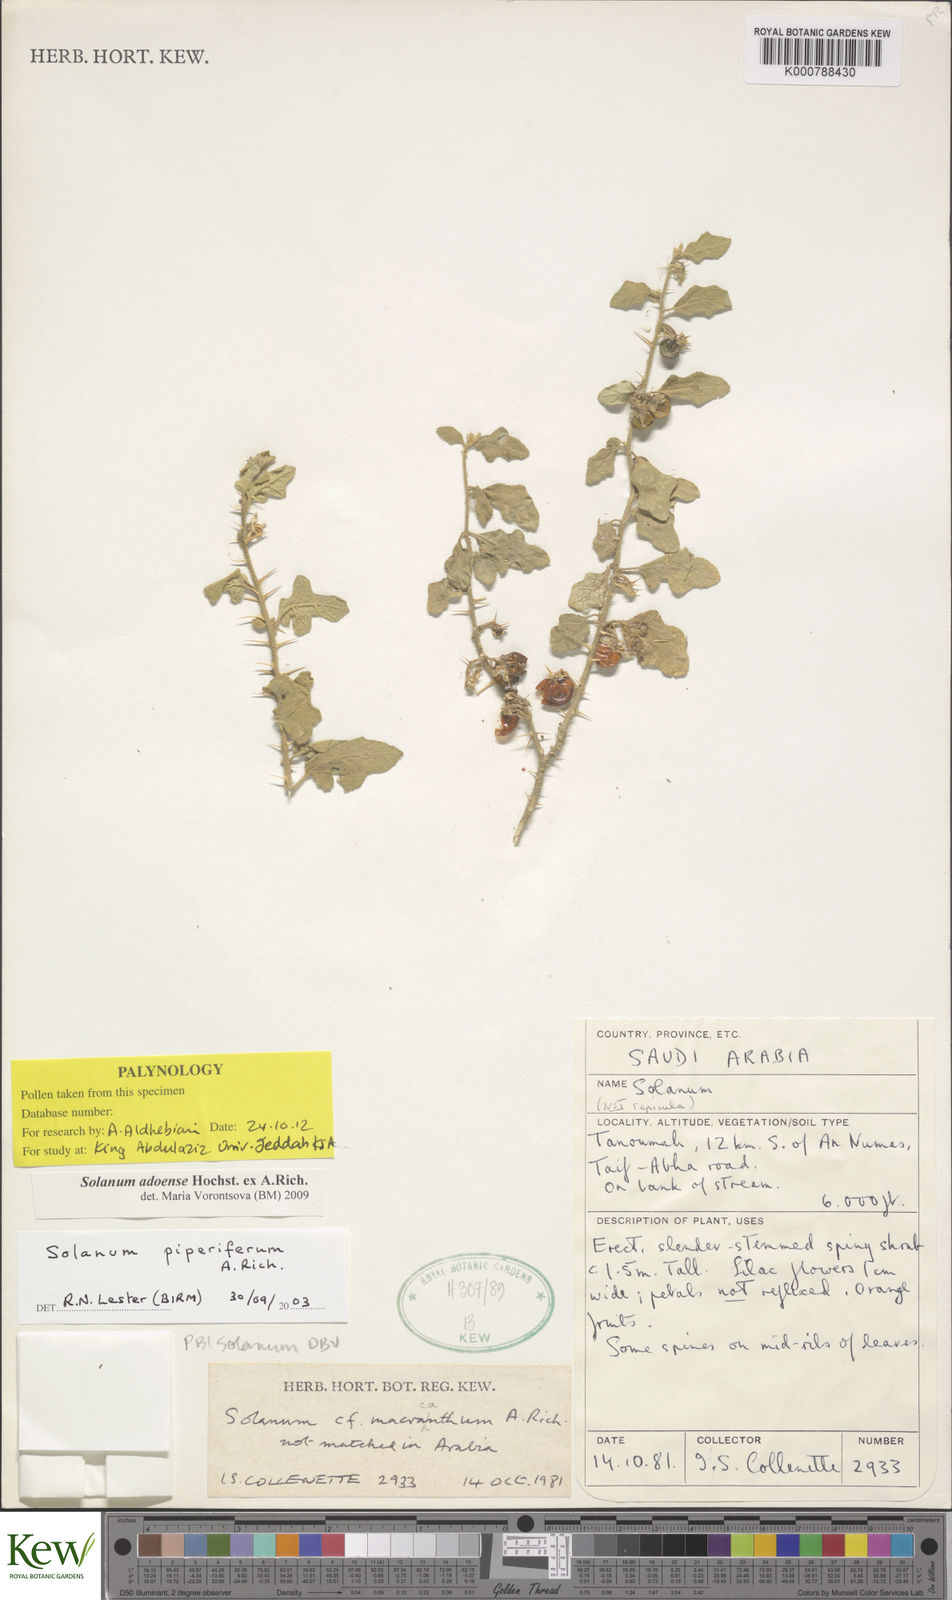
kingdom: Plantae
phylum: Tracheophyta
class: Magnoliopsida
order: Solanales
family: Solanaceae
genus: Solanum
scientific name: Solanum adoense
